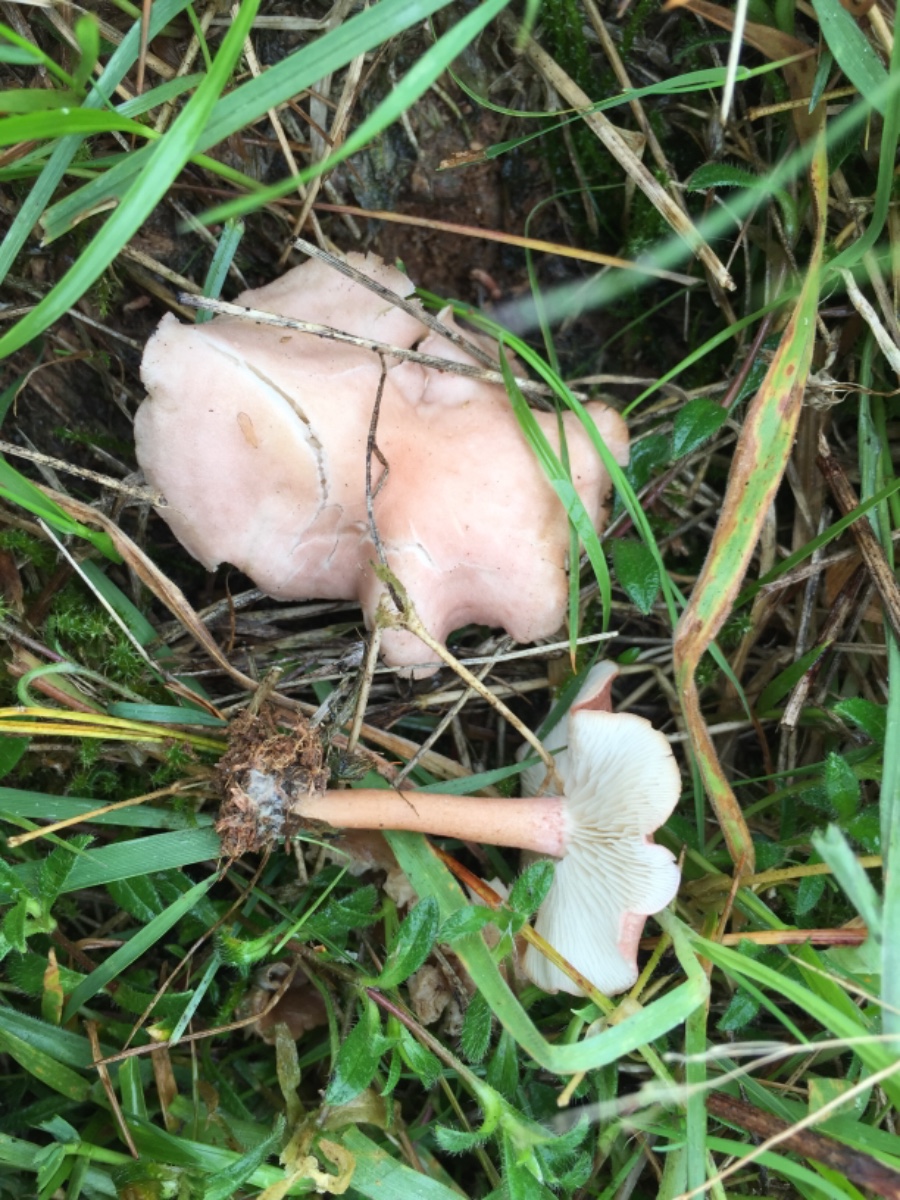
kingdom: Fungi
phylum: Basidiomycota
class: Agaricomycetes
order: Agaricales
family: Lyophyllaceae
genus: Calocybe
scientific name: Calocybe carnea
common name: rosa fagerhat
